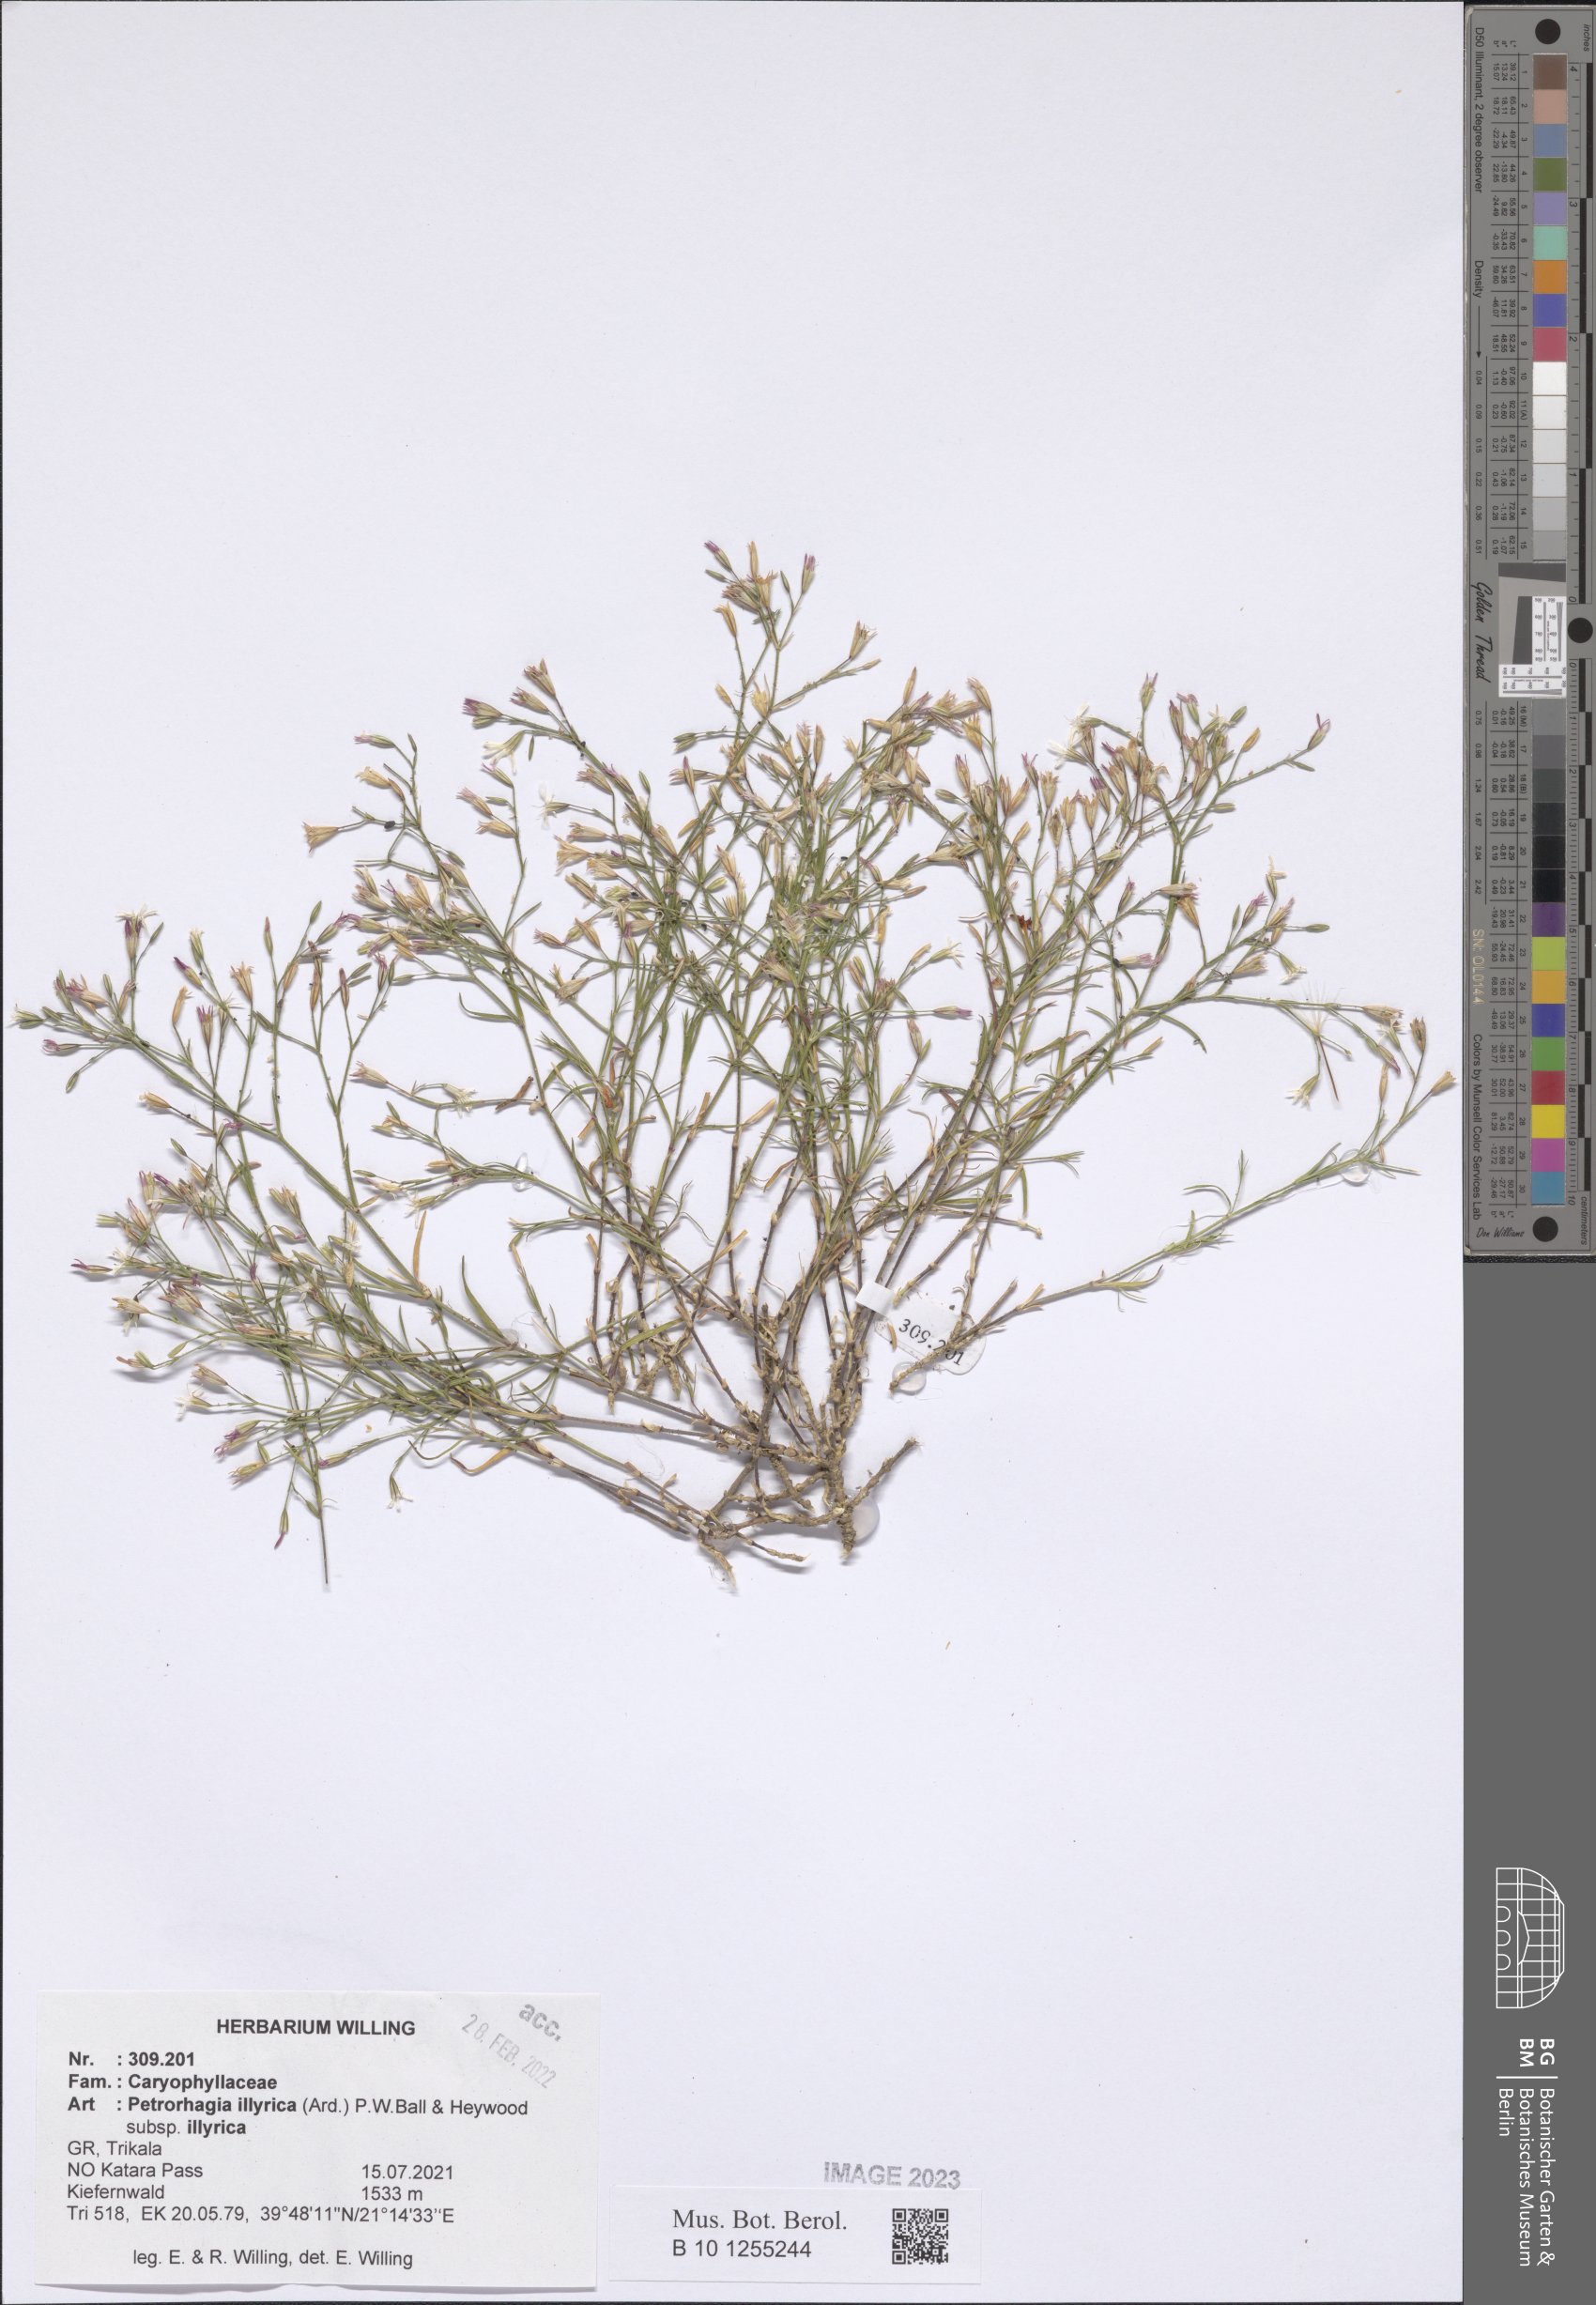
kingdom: Plantae
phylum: Tracheophyta
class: Magnoliopsida
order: Caryophyllales
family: Caryophyllaceae
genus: Dianthus
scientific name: Dianthus illyricus
